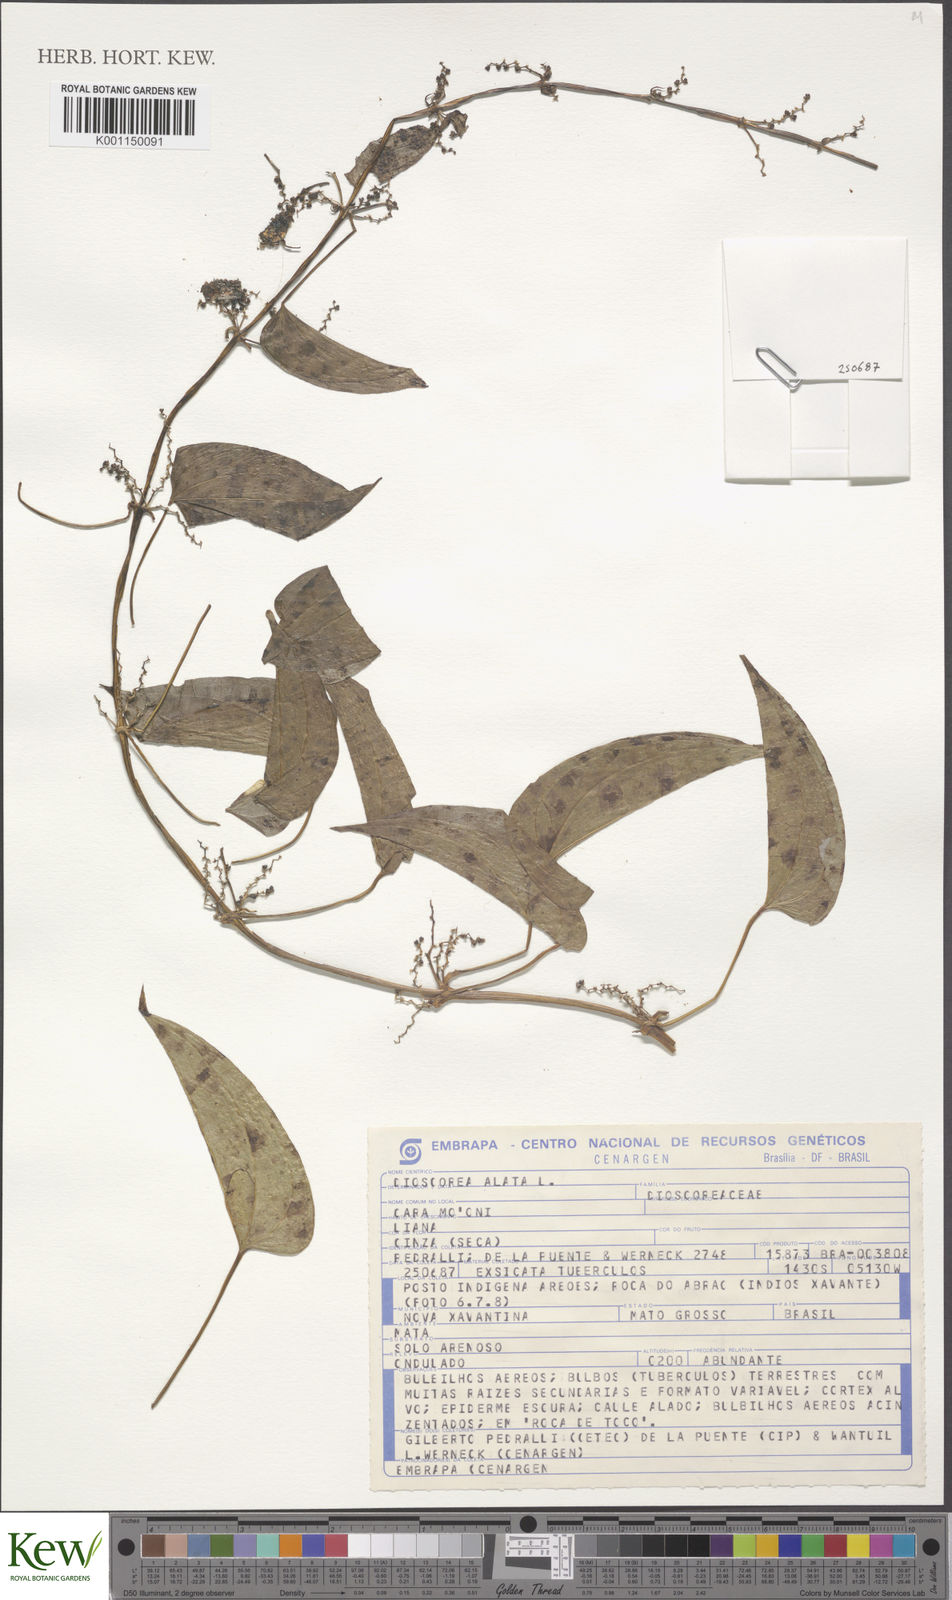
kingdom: Plantae
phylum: Tracheophyta
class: Liliopsida
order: Dioscoreales
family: Dioscoreaceae
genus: Dioscorea
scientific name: Dioscorea alata
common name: Water yam
